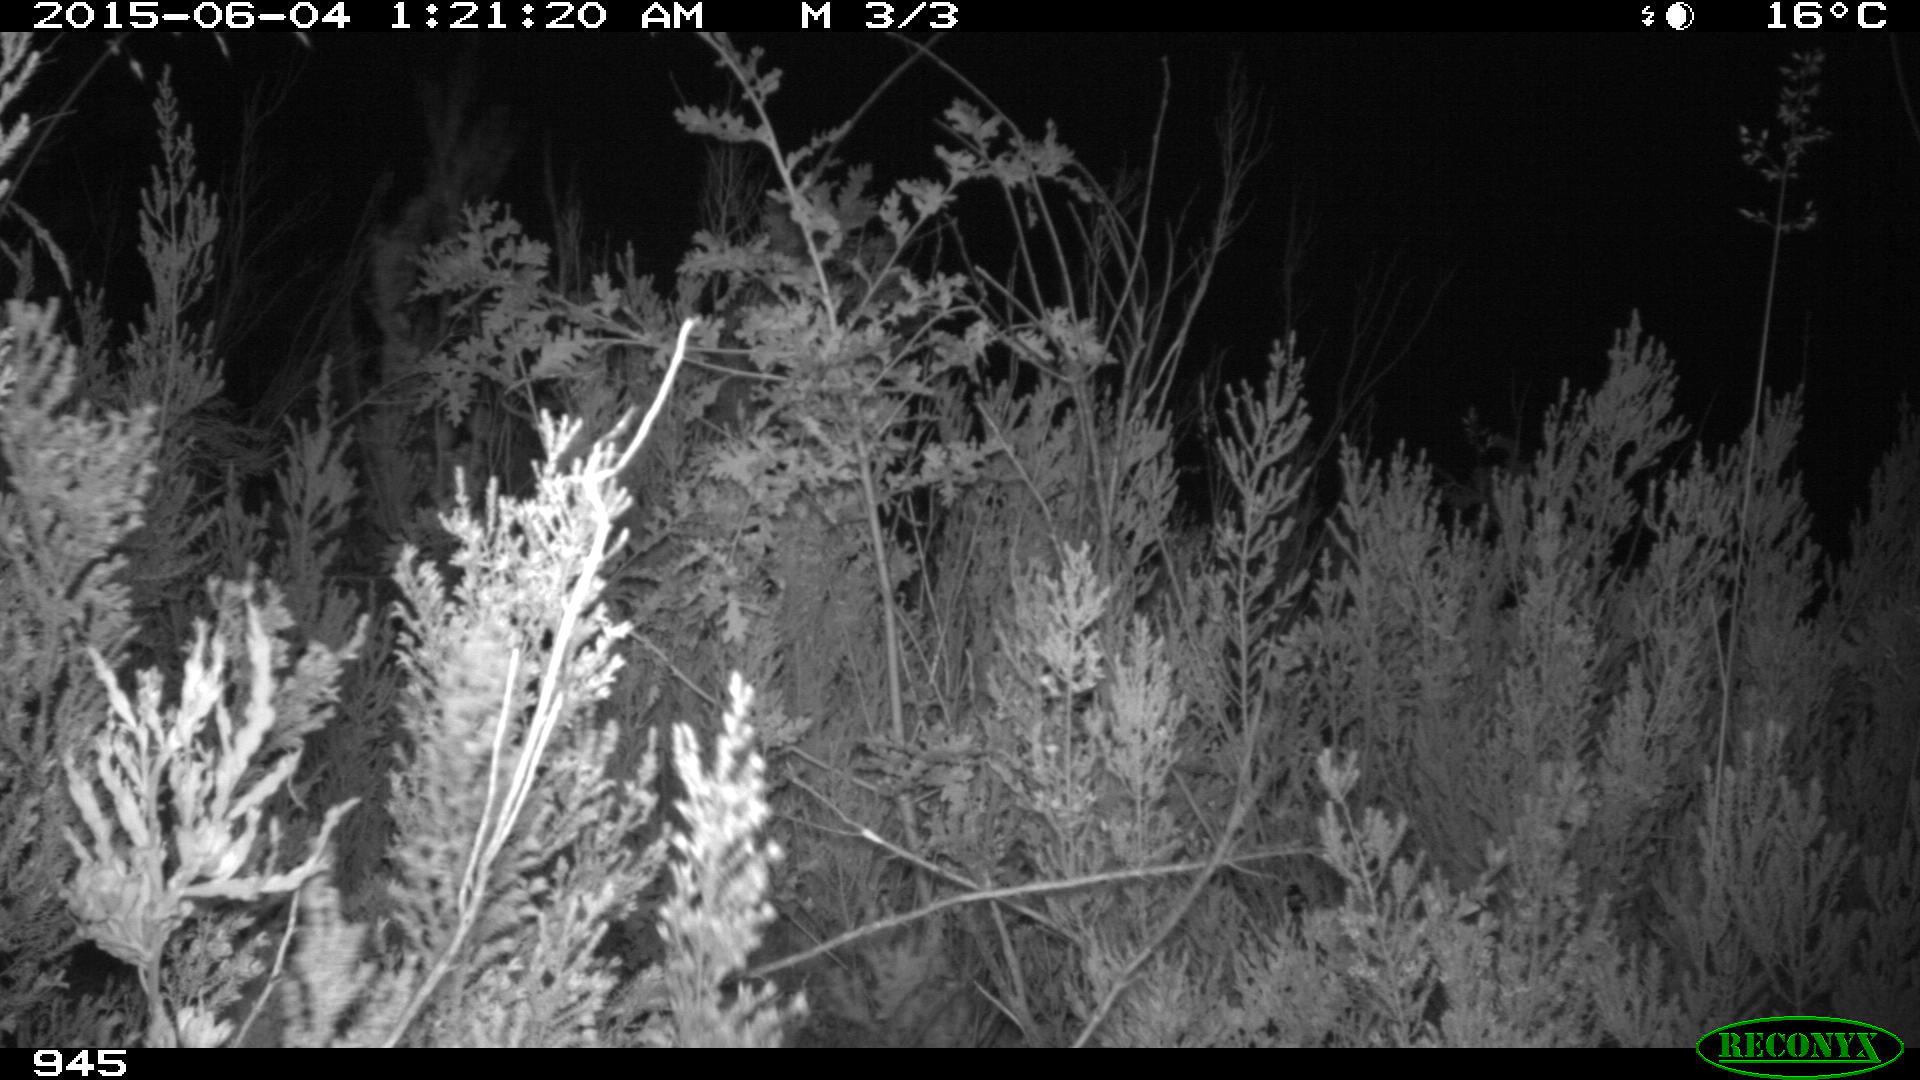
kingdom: Animalia
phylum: Chordata
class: Mammalia
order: Artiodactyla
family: Cervidae
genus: Capreolus
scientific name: Capreolus capreolus
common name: Western roe deer
